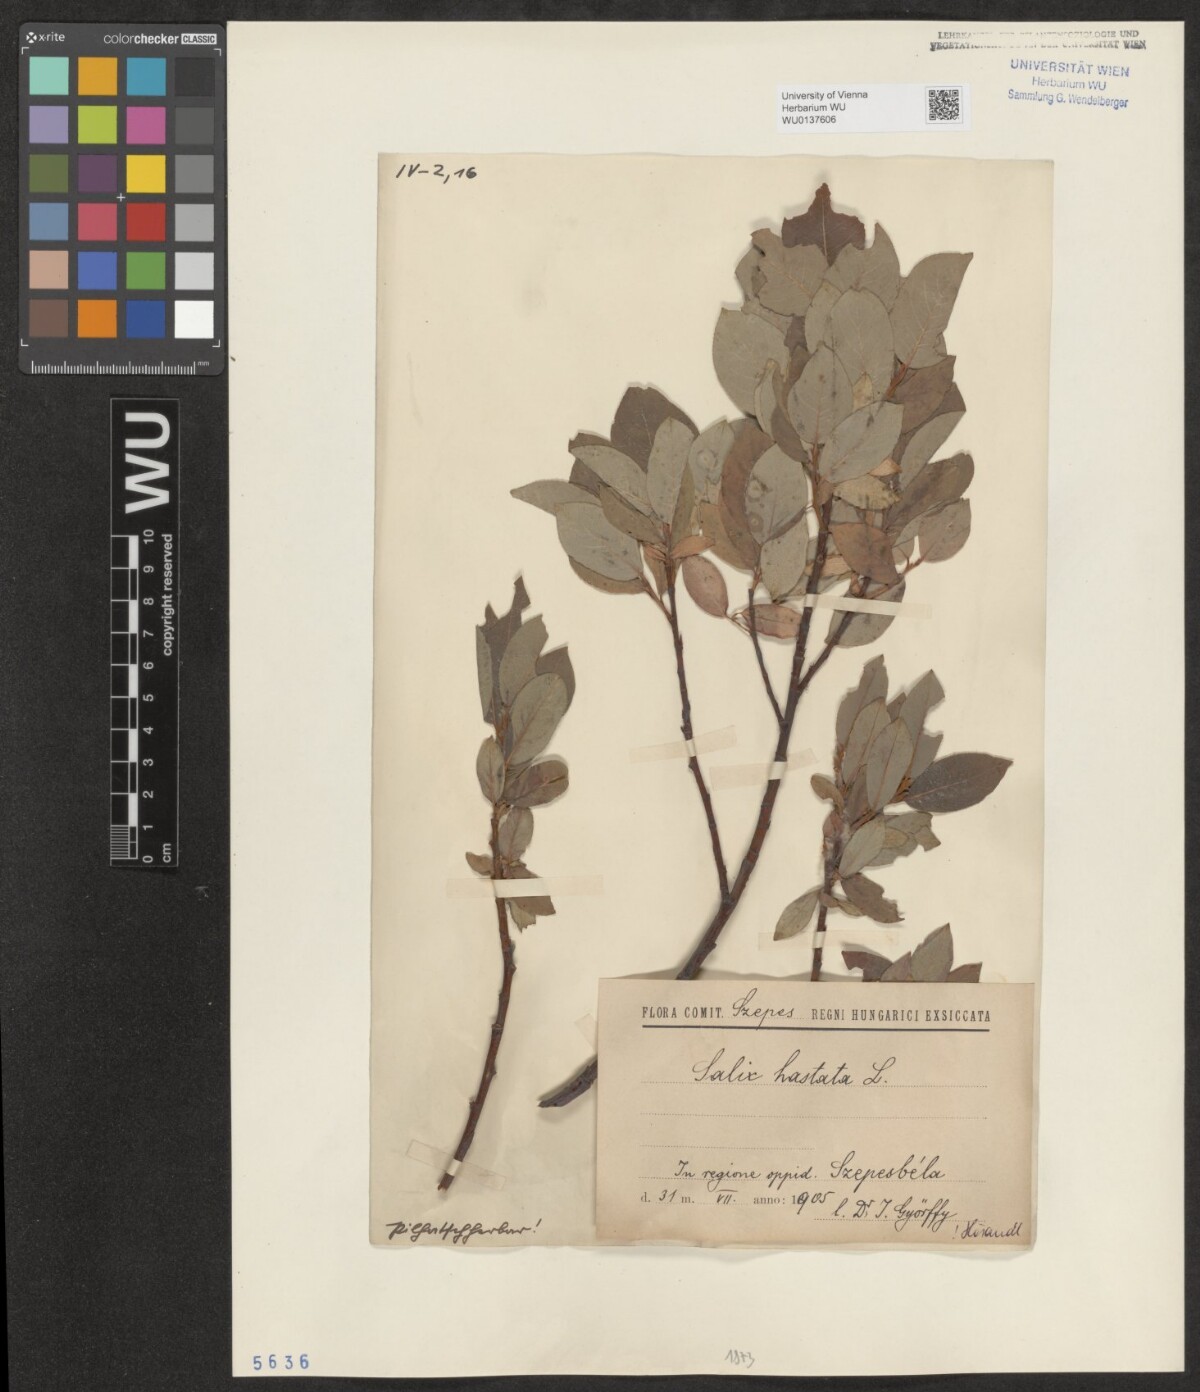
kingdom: Plantae
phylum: Tracheophyta
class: Magnoliopsida
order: Malpighiales
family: Salicaceae
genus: Salix
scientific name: Salix hastata
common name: Halberd willow
